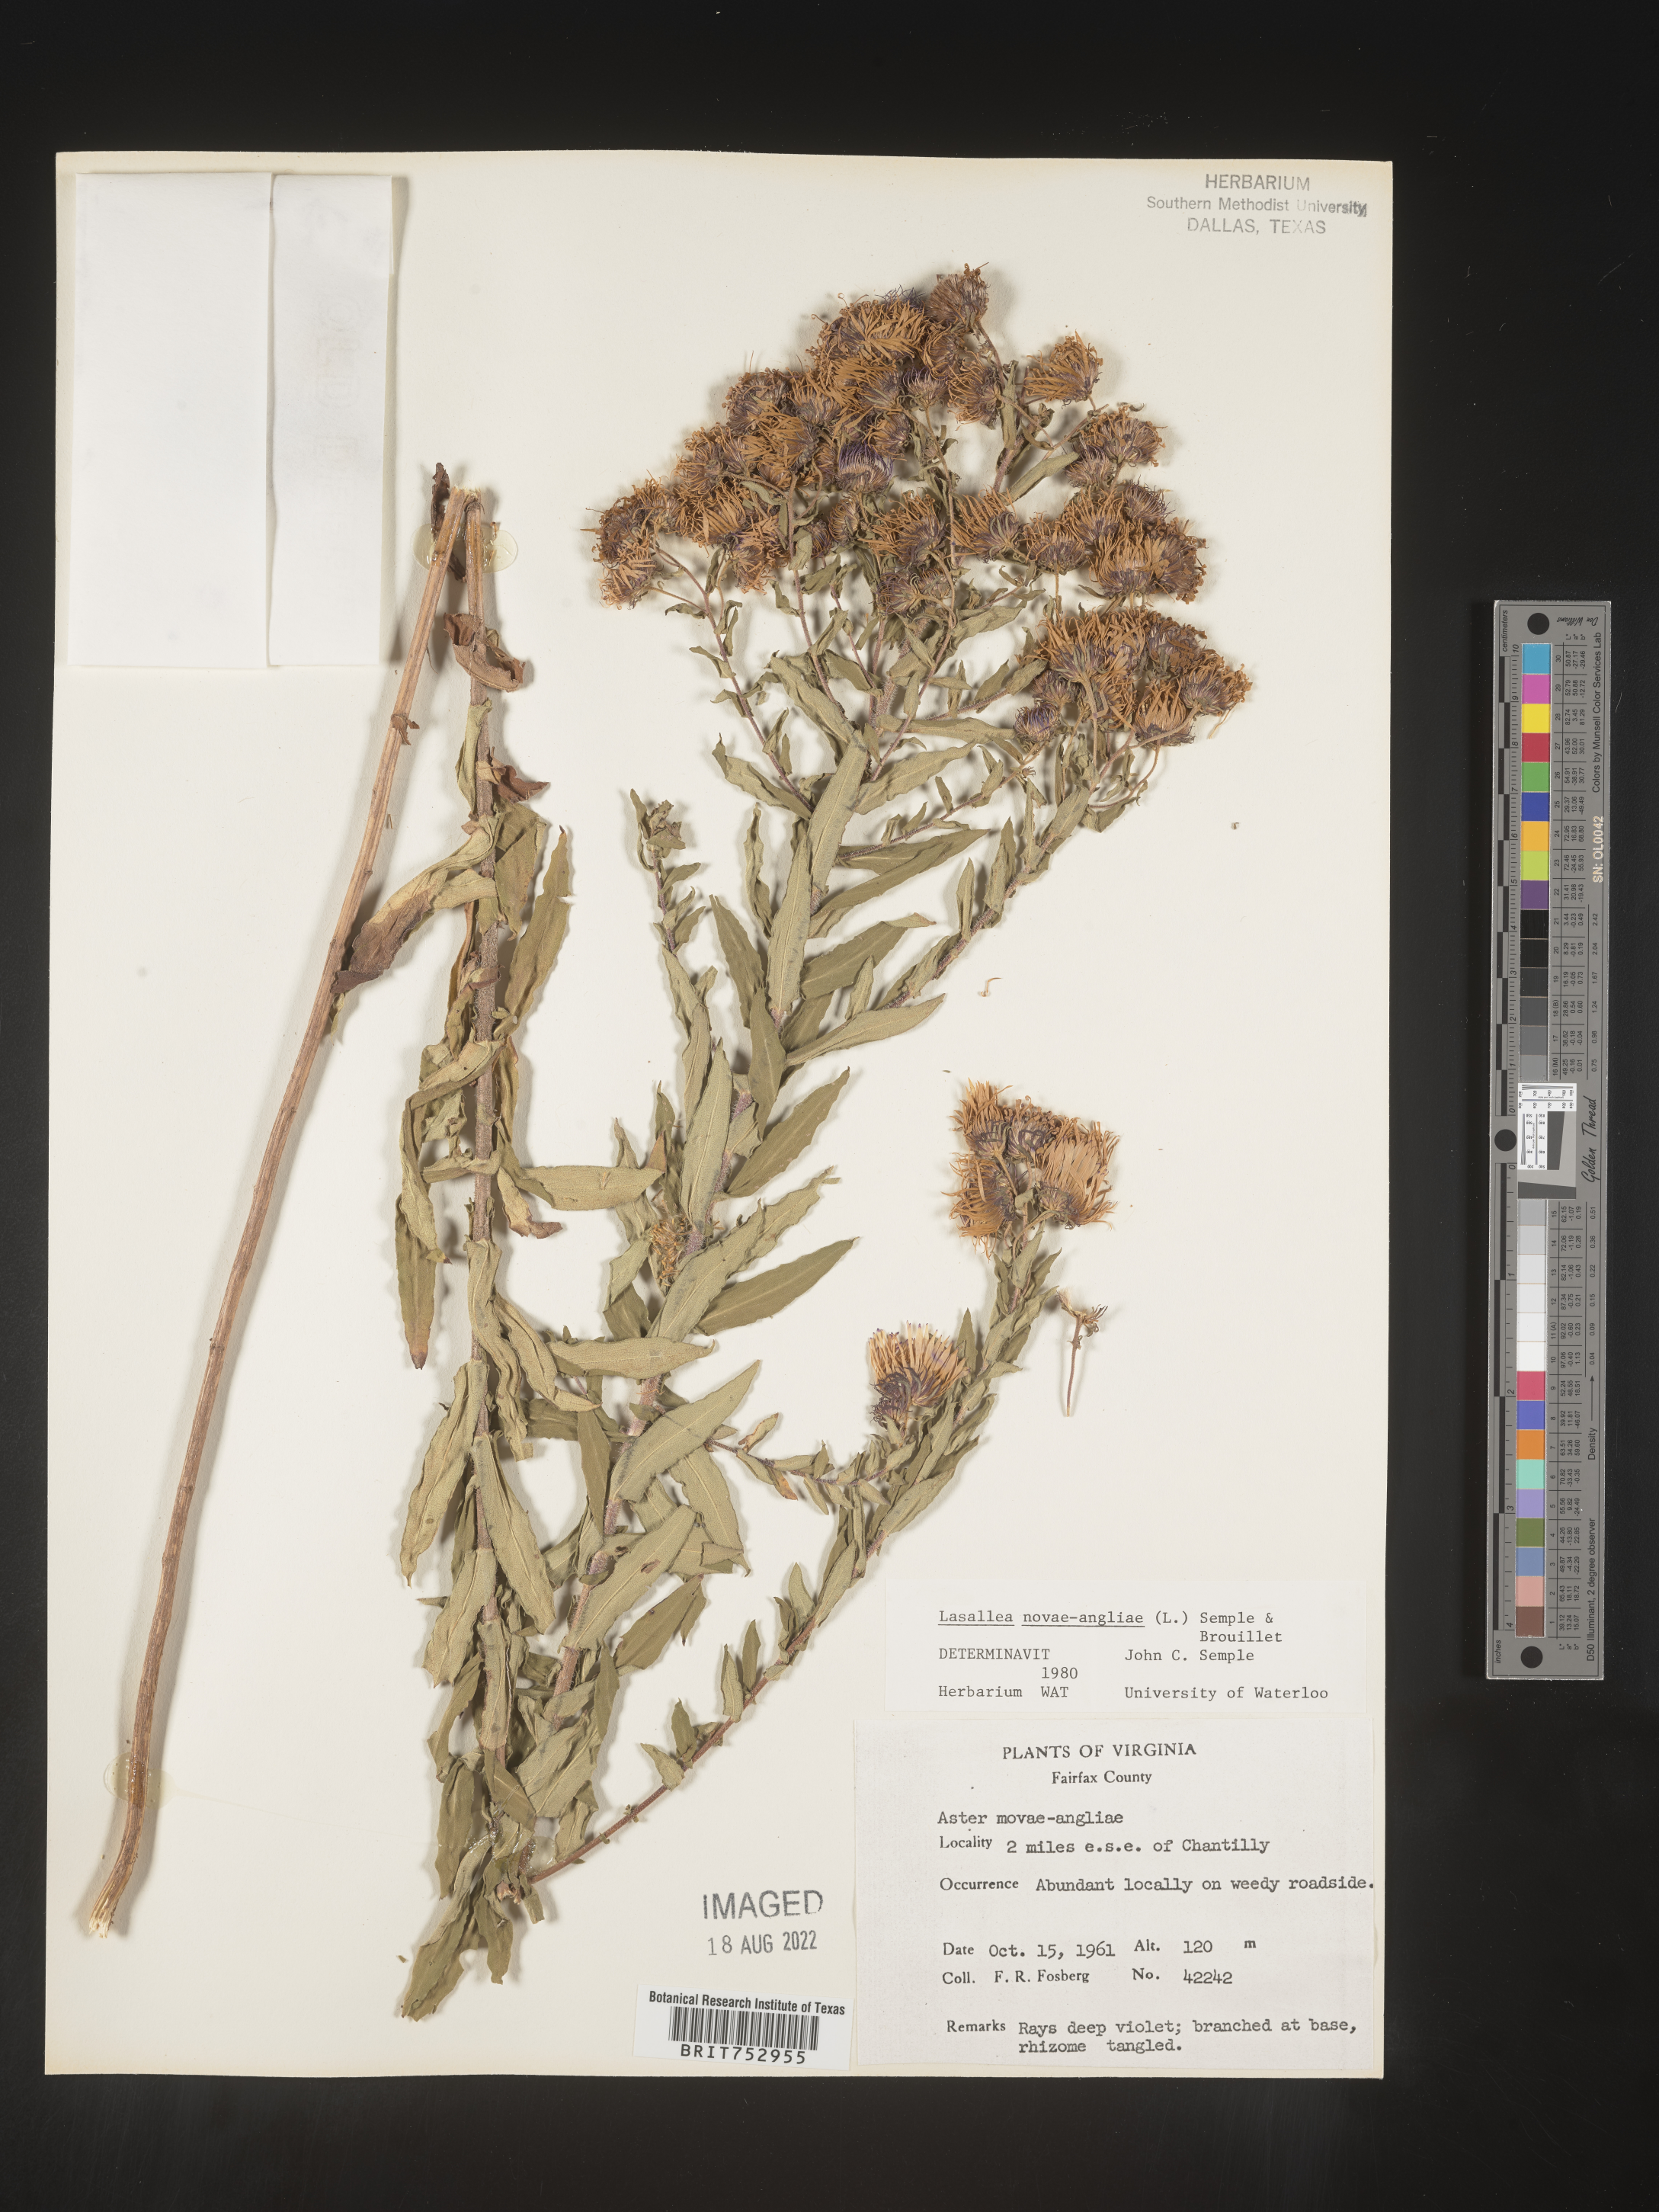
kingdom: Plantae
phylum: Tracheophyta
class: Magnoliopsida
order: Asterales
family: Asteraceae
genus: Symphyotrichum
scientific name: Symphyotrichum novae-angliae
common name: Michaelmas daisy
